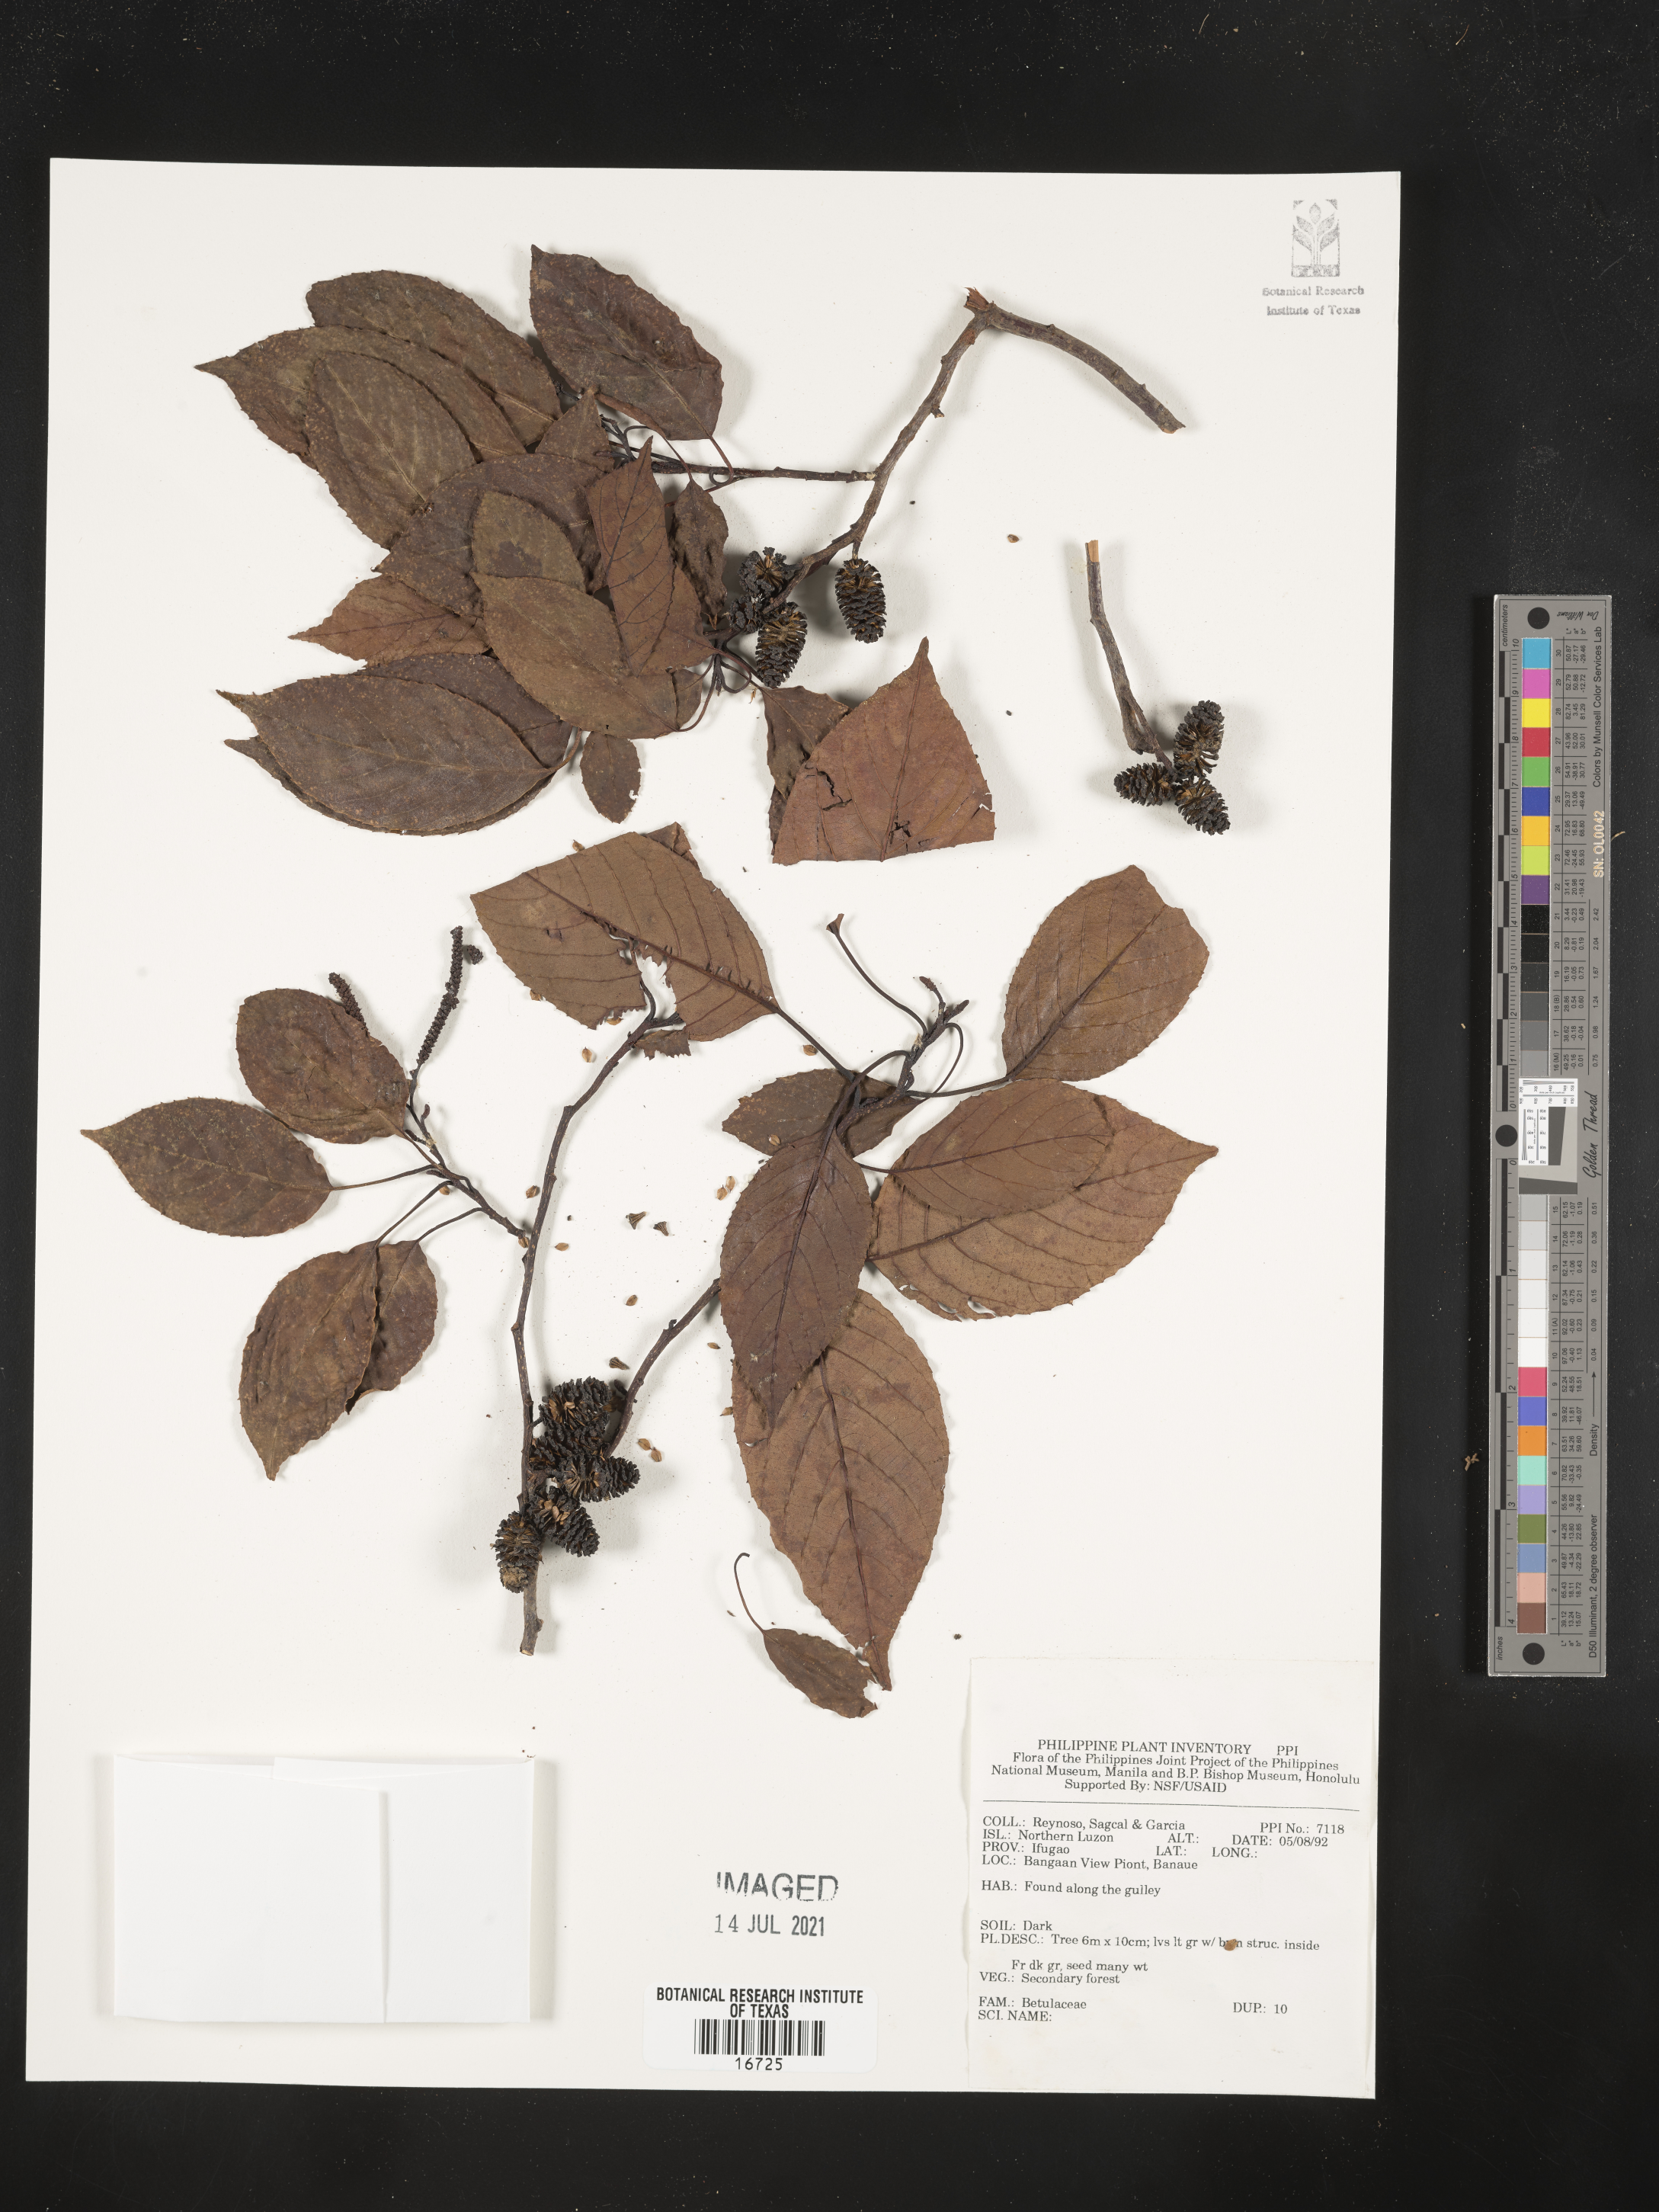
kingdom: Plantae
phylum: Tracheophyta
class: Magnoliopsida
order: Fagales
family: Betulaceae
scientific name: Betulaceae
